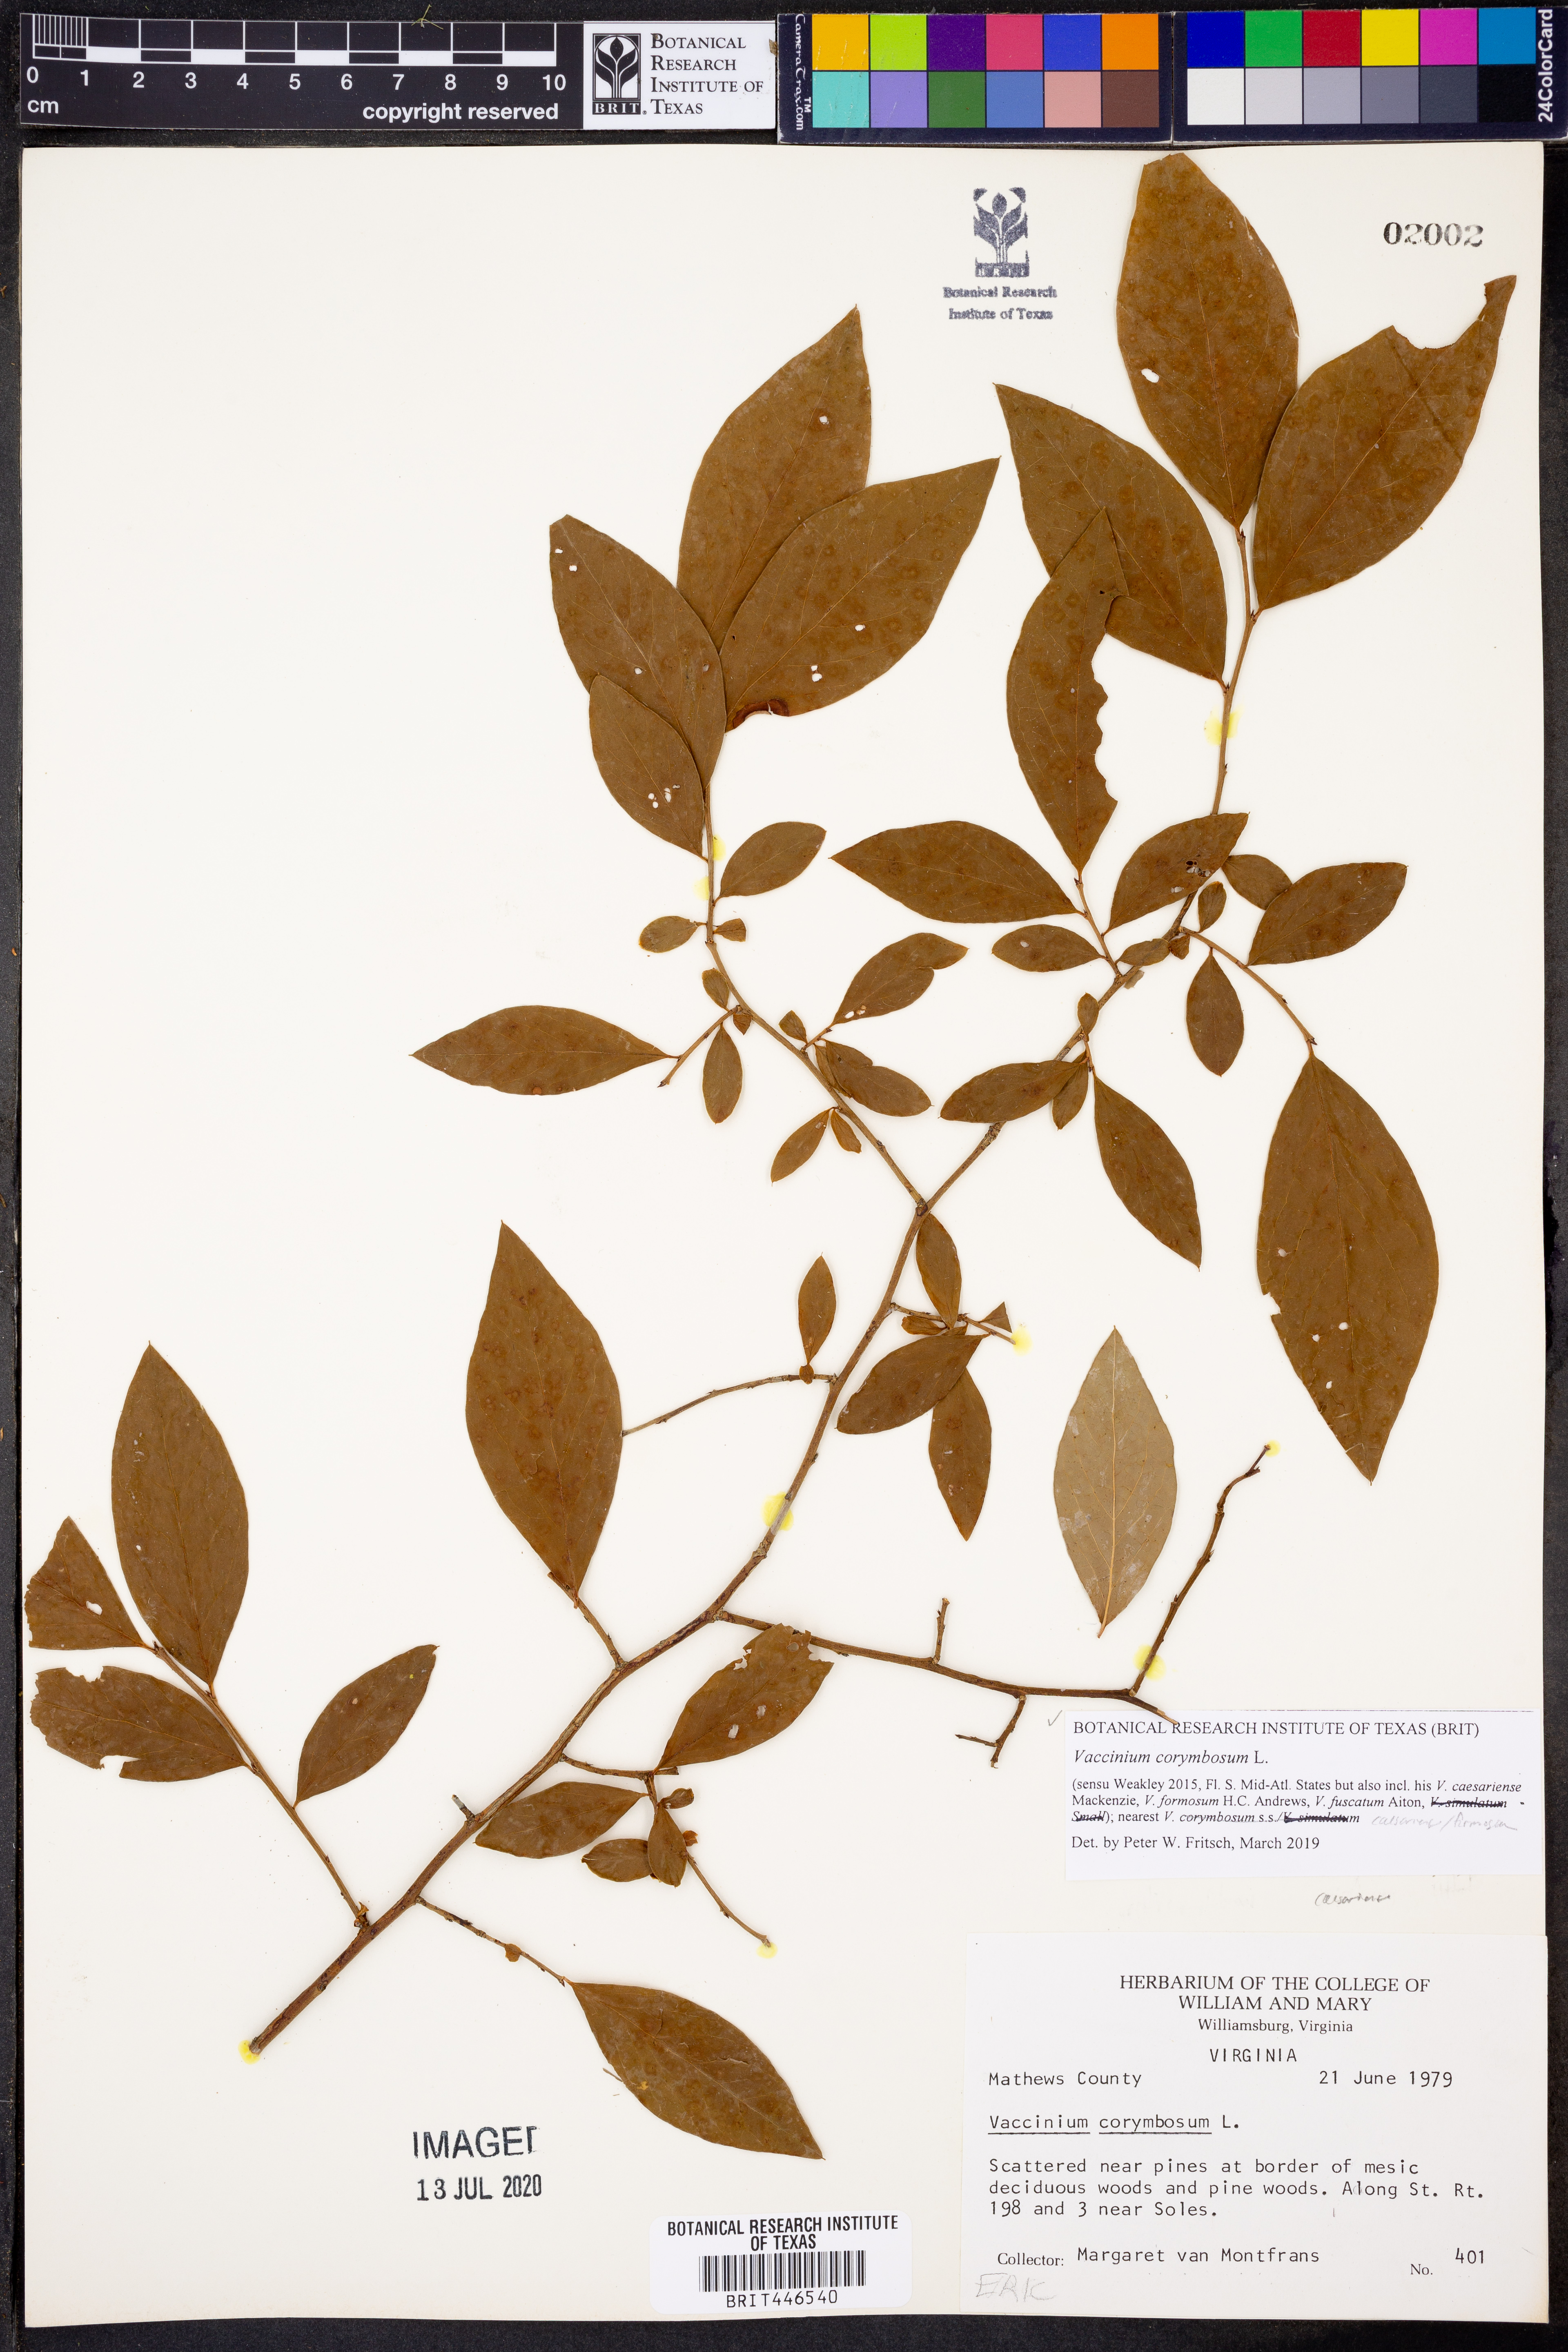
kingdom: Plantae
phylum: Tracheophyta
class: Magnoliopsida
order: Ericales
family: Ericaceae
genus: Vaccinium
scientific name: Vaccinium corymbosum
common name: Blueberry
